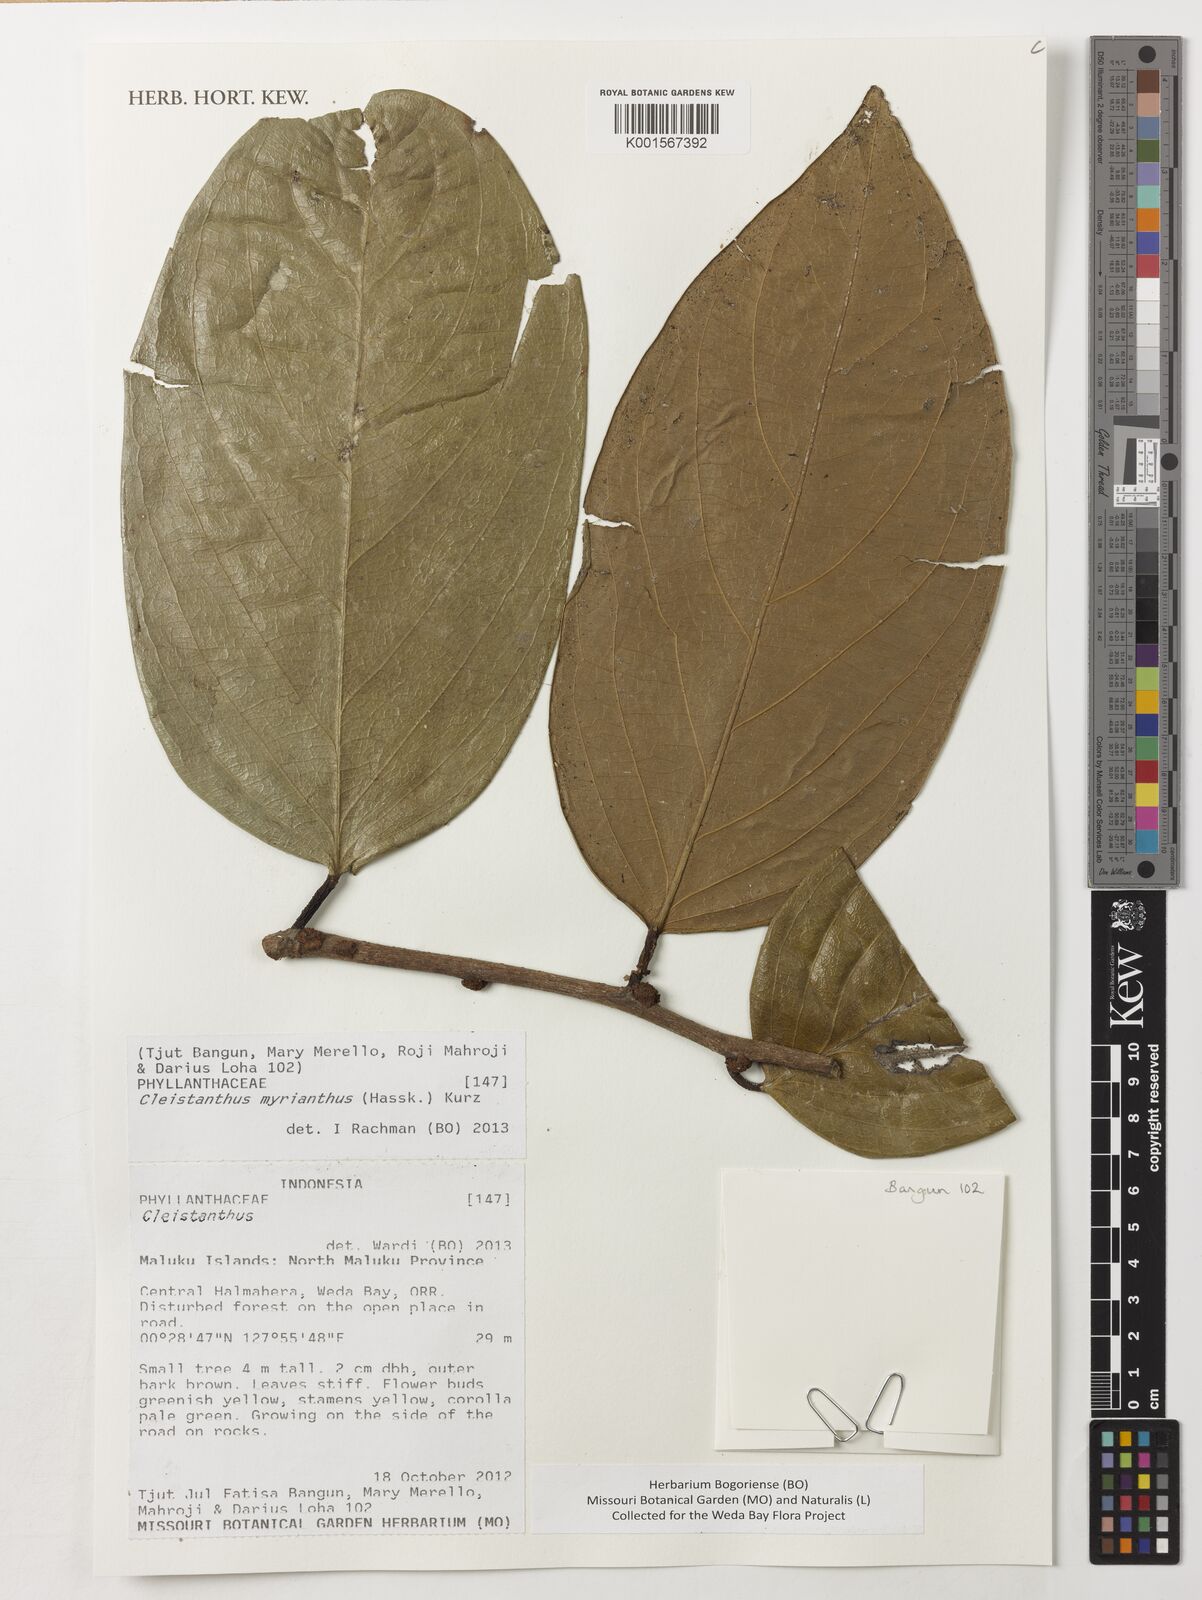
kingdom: Plantae
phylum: Tracheophyta
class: Magnoliopsida
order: Malpighiales
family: Phyllanthaceae
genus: Cleistanthus
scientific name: Cleistanthus oblongifolius
